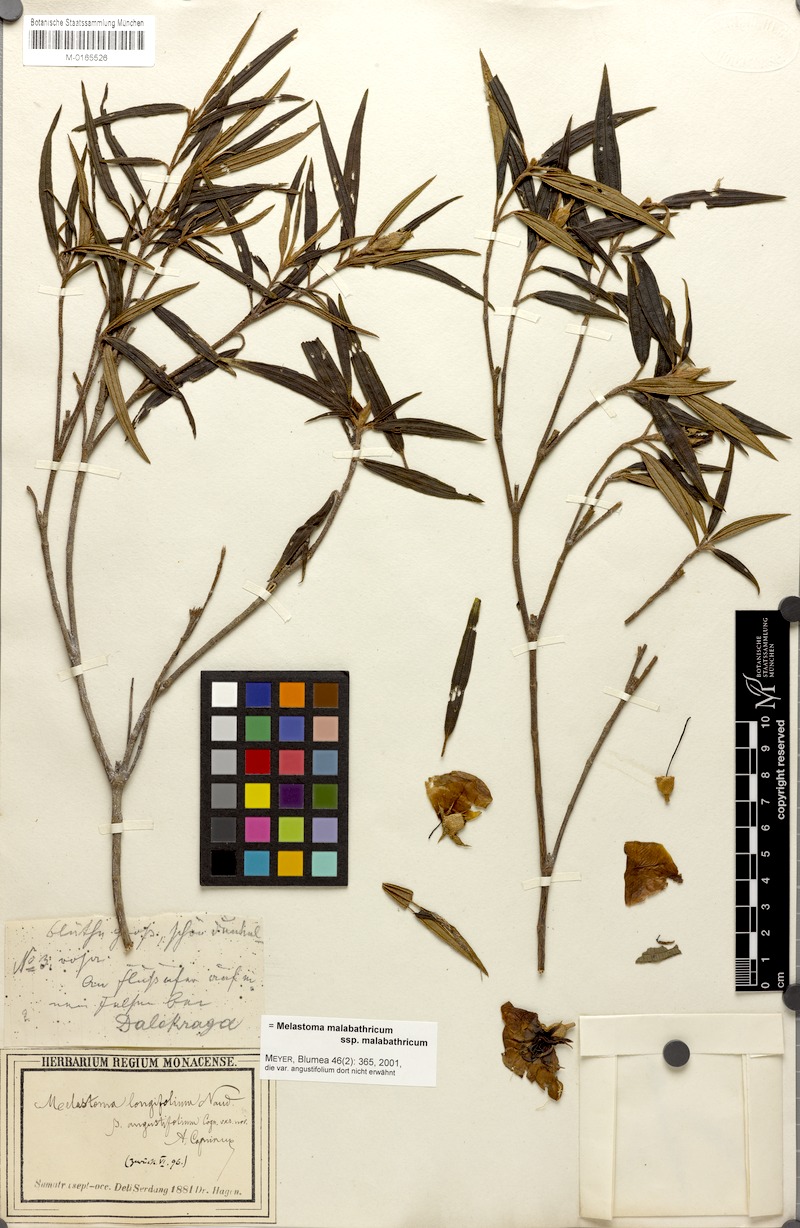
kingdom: Plantae
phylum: Tracheophyta
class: Magnoliopsida
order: Myrtales
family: Melastomataceae
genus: Melastoma
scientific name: Melastoma malabathricum
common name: Indian-rhododendron
